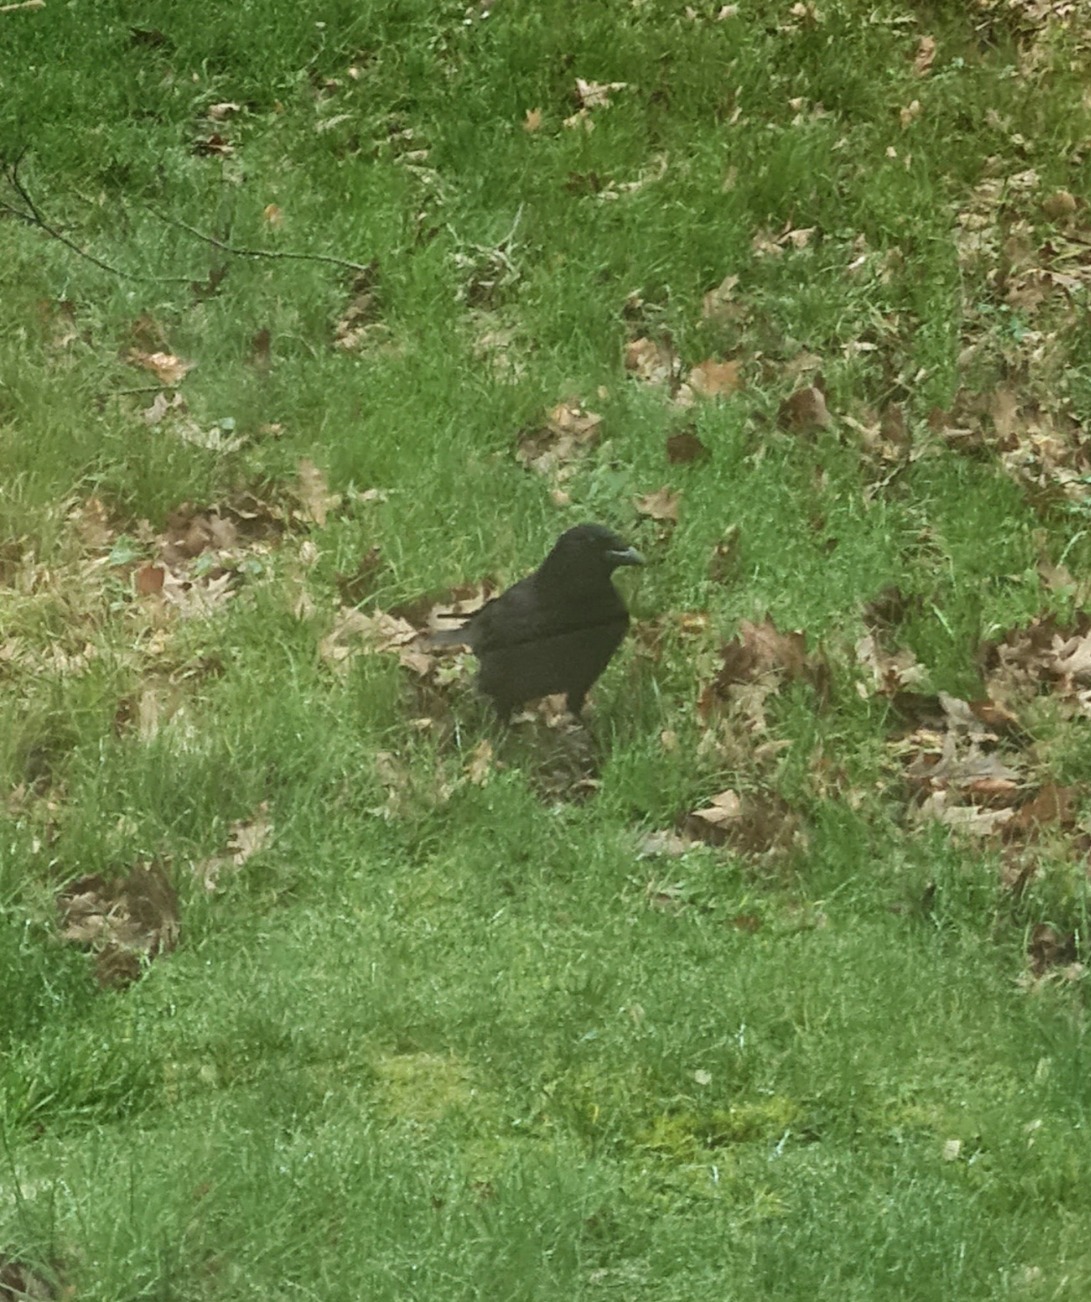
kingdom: Animalia
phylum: Chordata
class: Aves
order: Passeriformes
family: Corvidae
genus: Corvus
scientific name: Corvus corone
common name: Sortkrage
